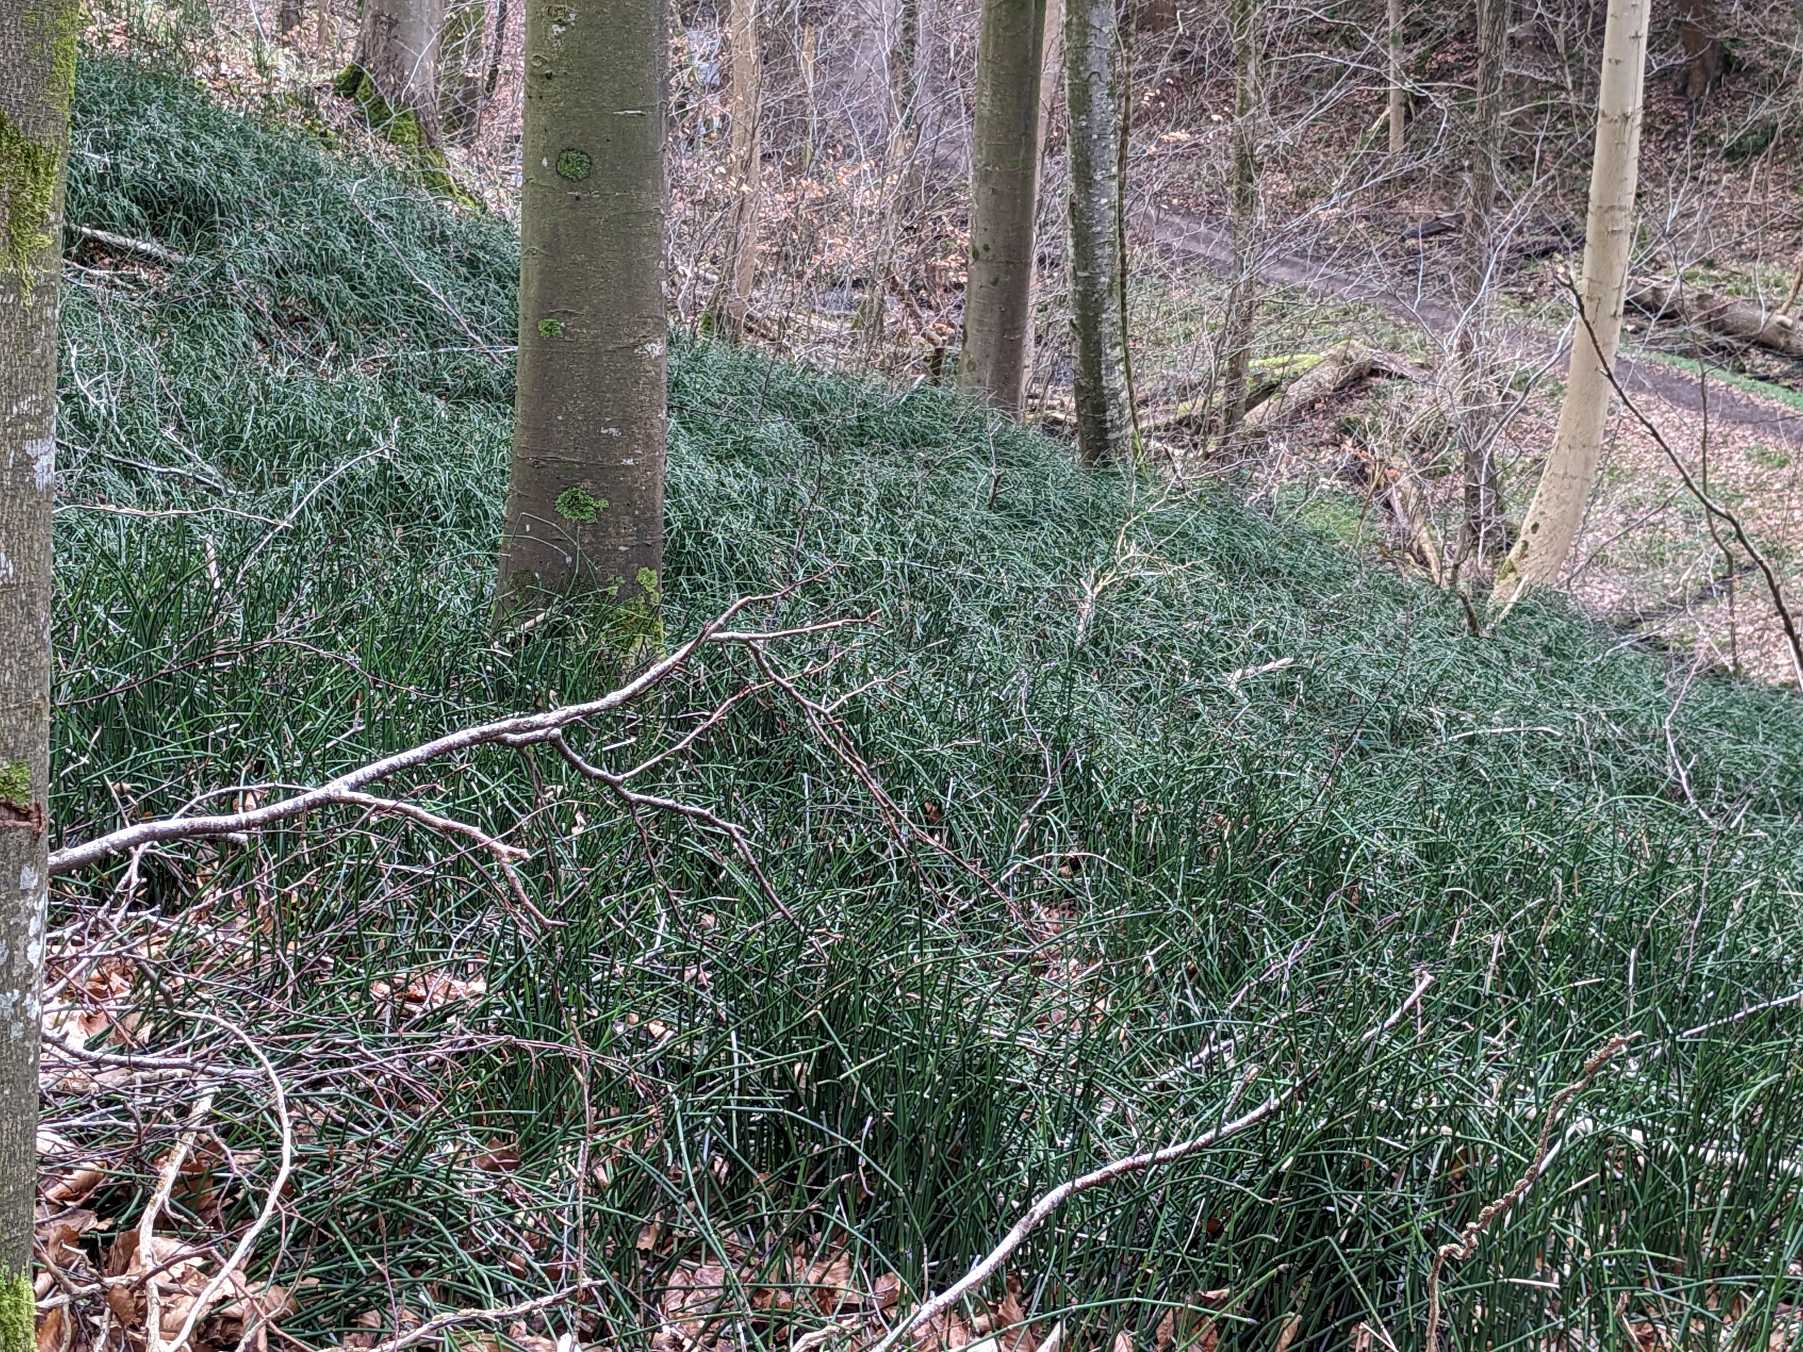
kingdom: Plantae
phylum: Tracheophyta
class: Polypodiopsida
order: Equisetales
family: Equisetaceae
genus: Equisetum
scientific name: Equisetum hyemale
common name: Skavgræs
